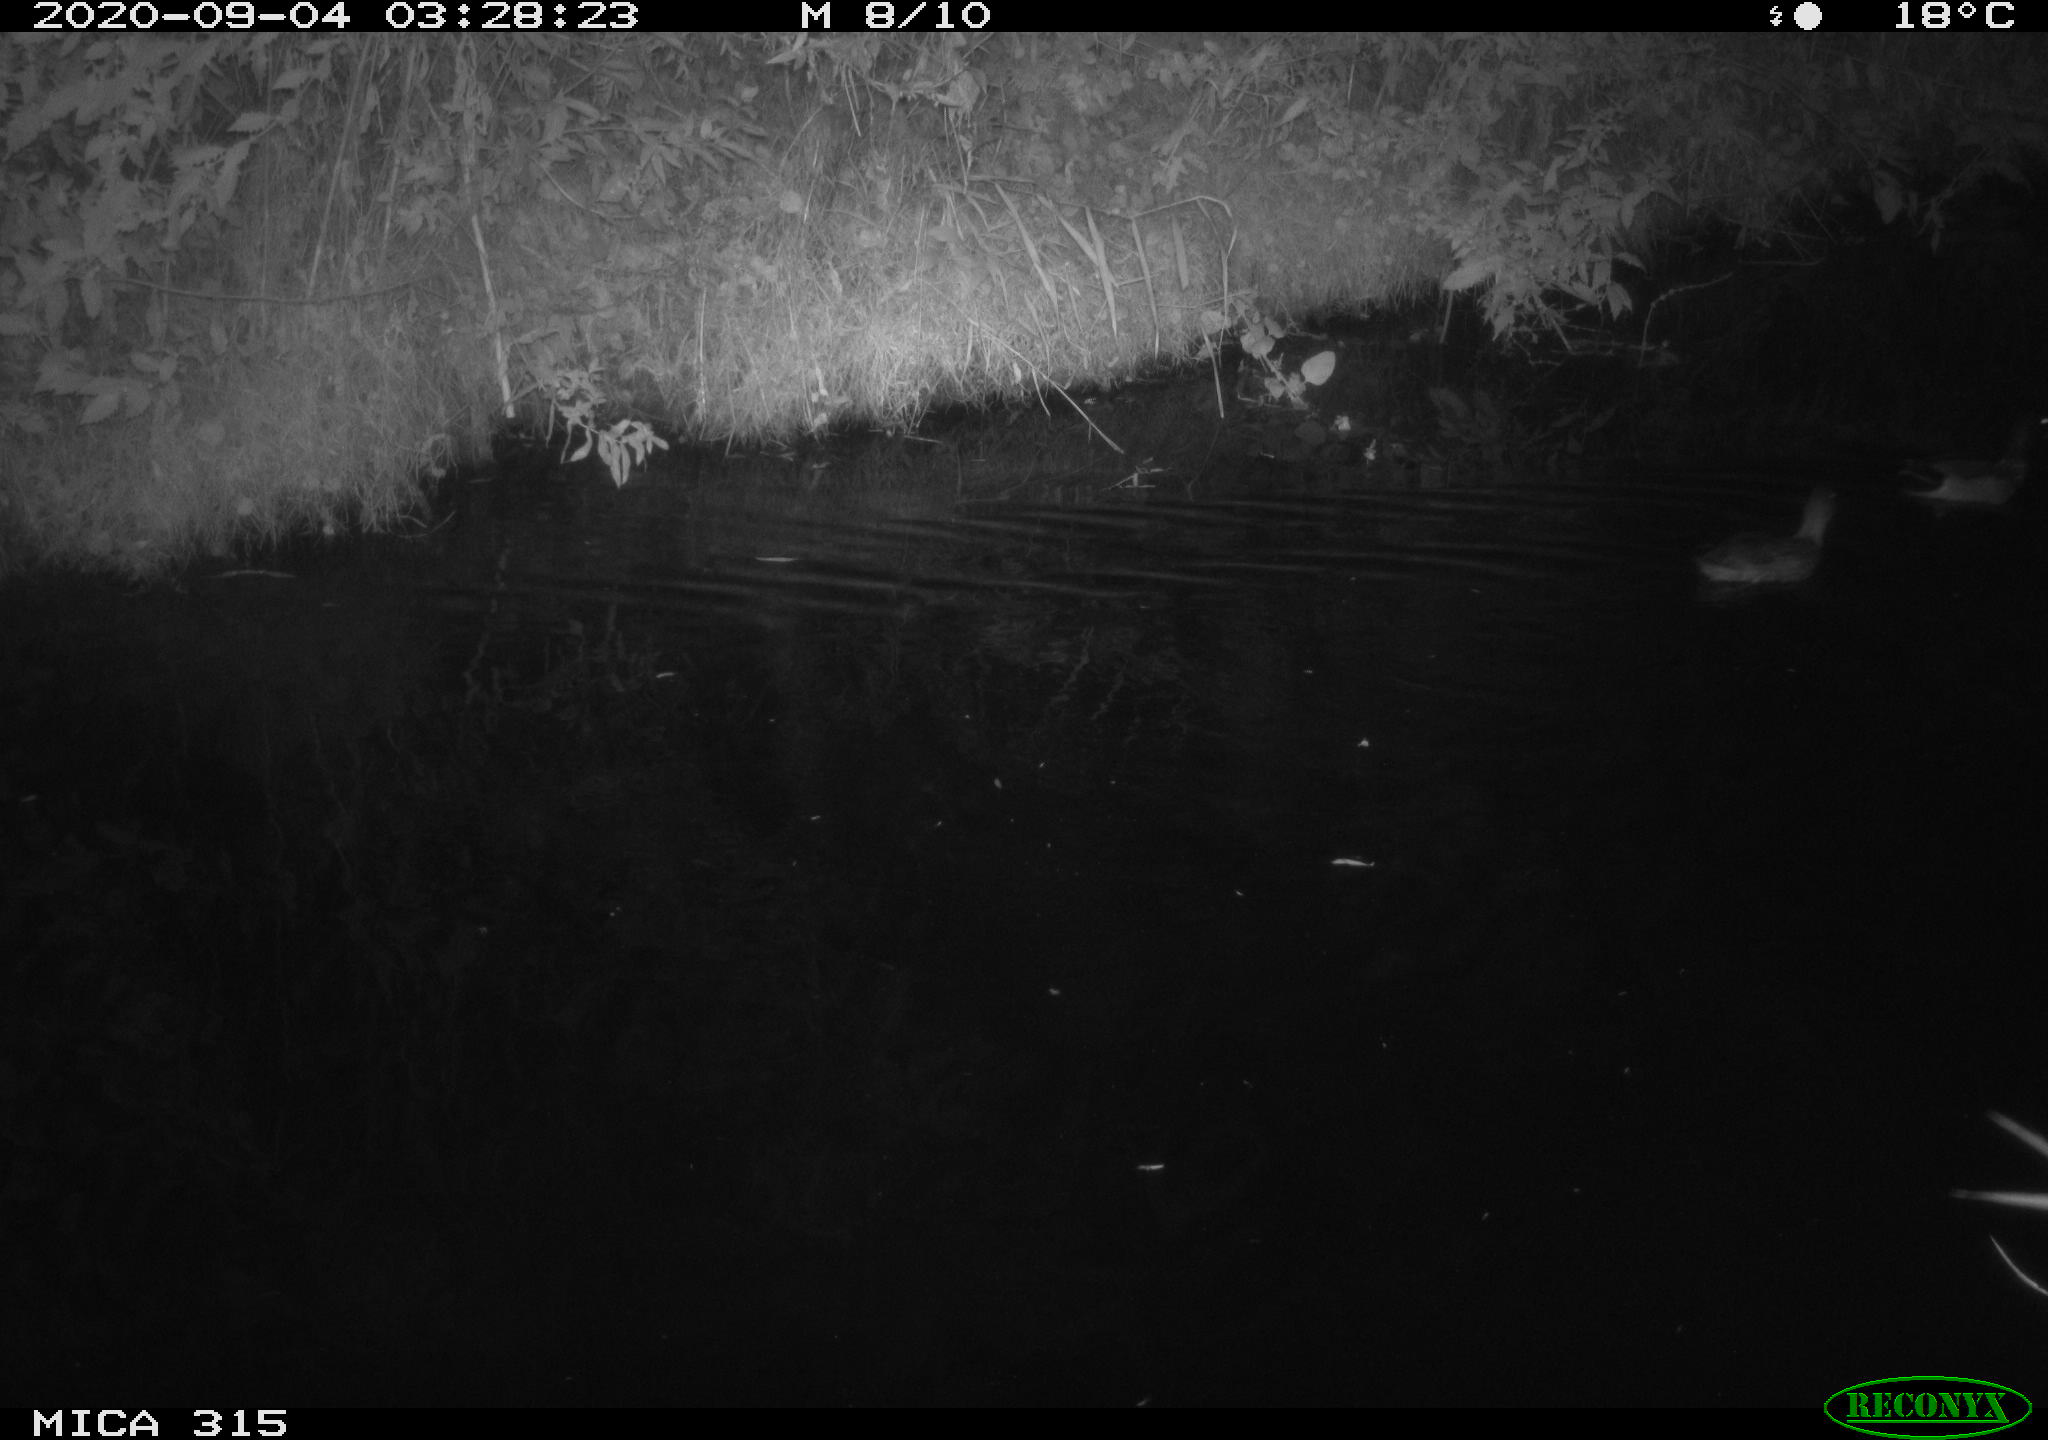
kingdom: Animalia
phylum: Chordata
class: Aves
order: Anseriformes
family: Anatidae
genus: Anas
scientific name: Anas platyrhynchos
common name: Mallard
